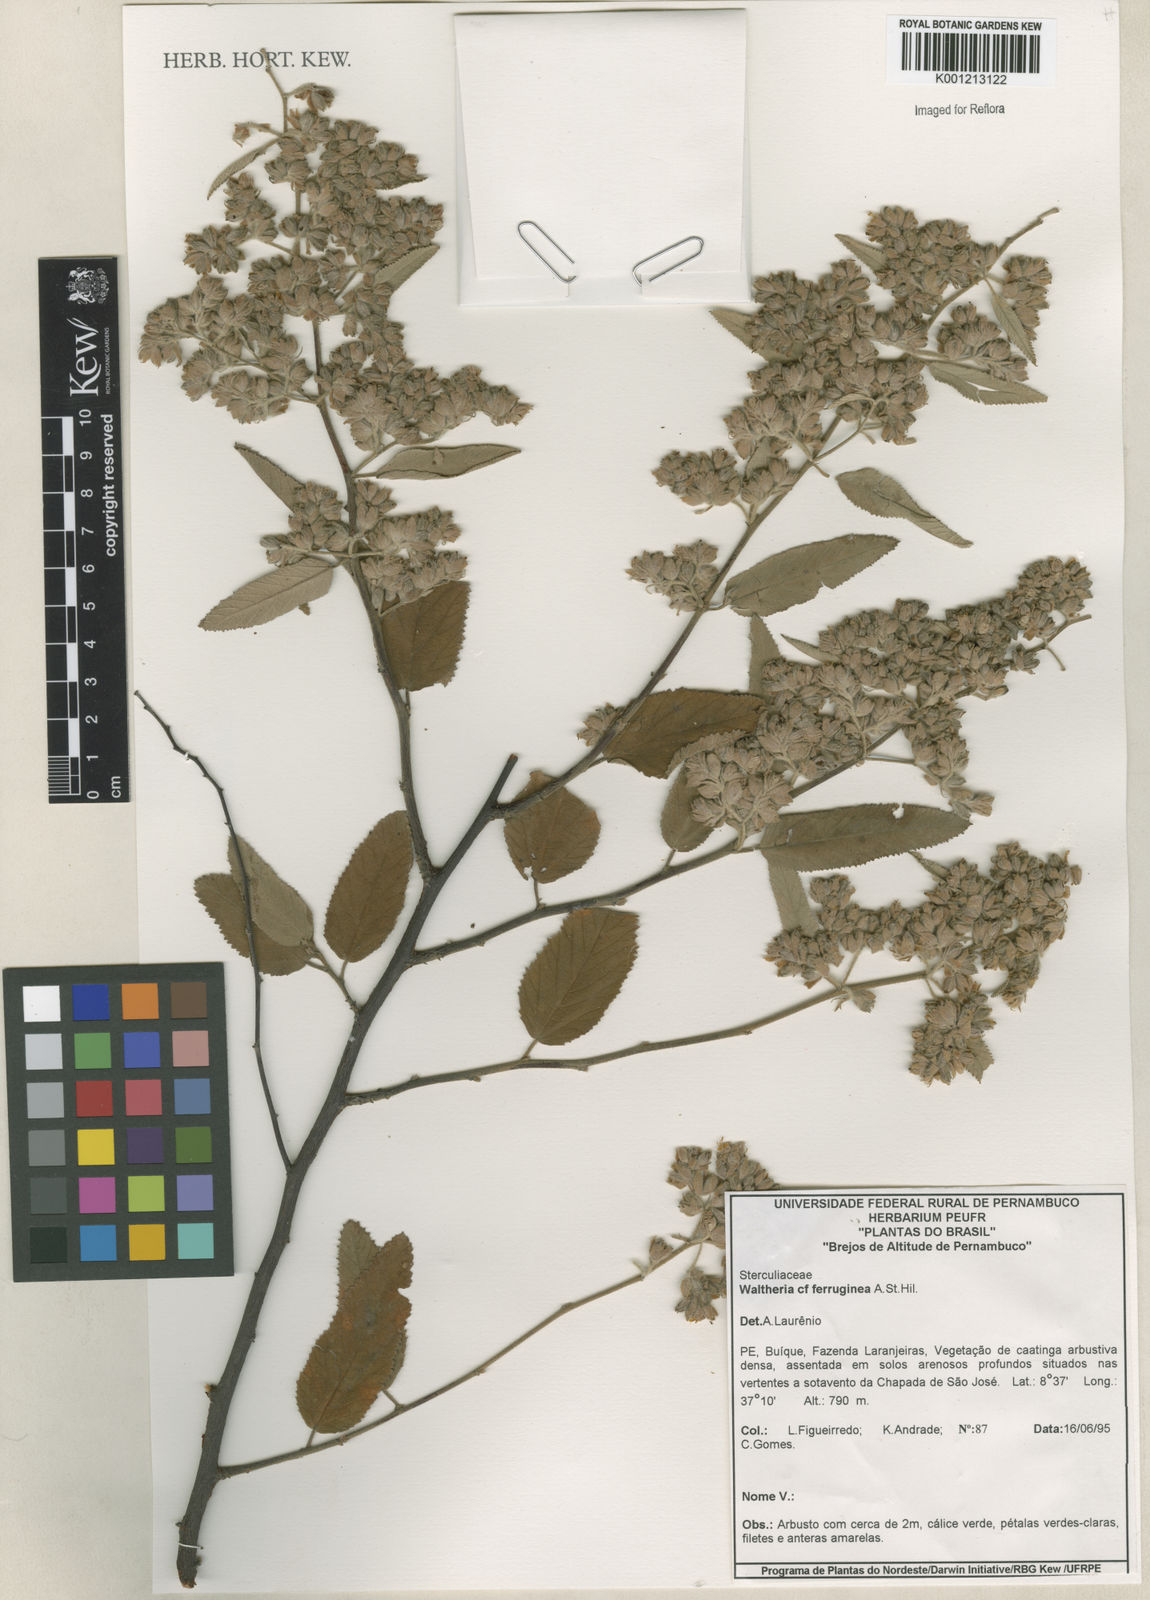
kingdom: Plantae
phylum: Tracheophyta
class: Magnoliopsida
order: Malvales
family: Malvaceae
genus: Waltheria
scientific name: Waltheria ferruginea
